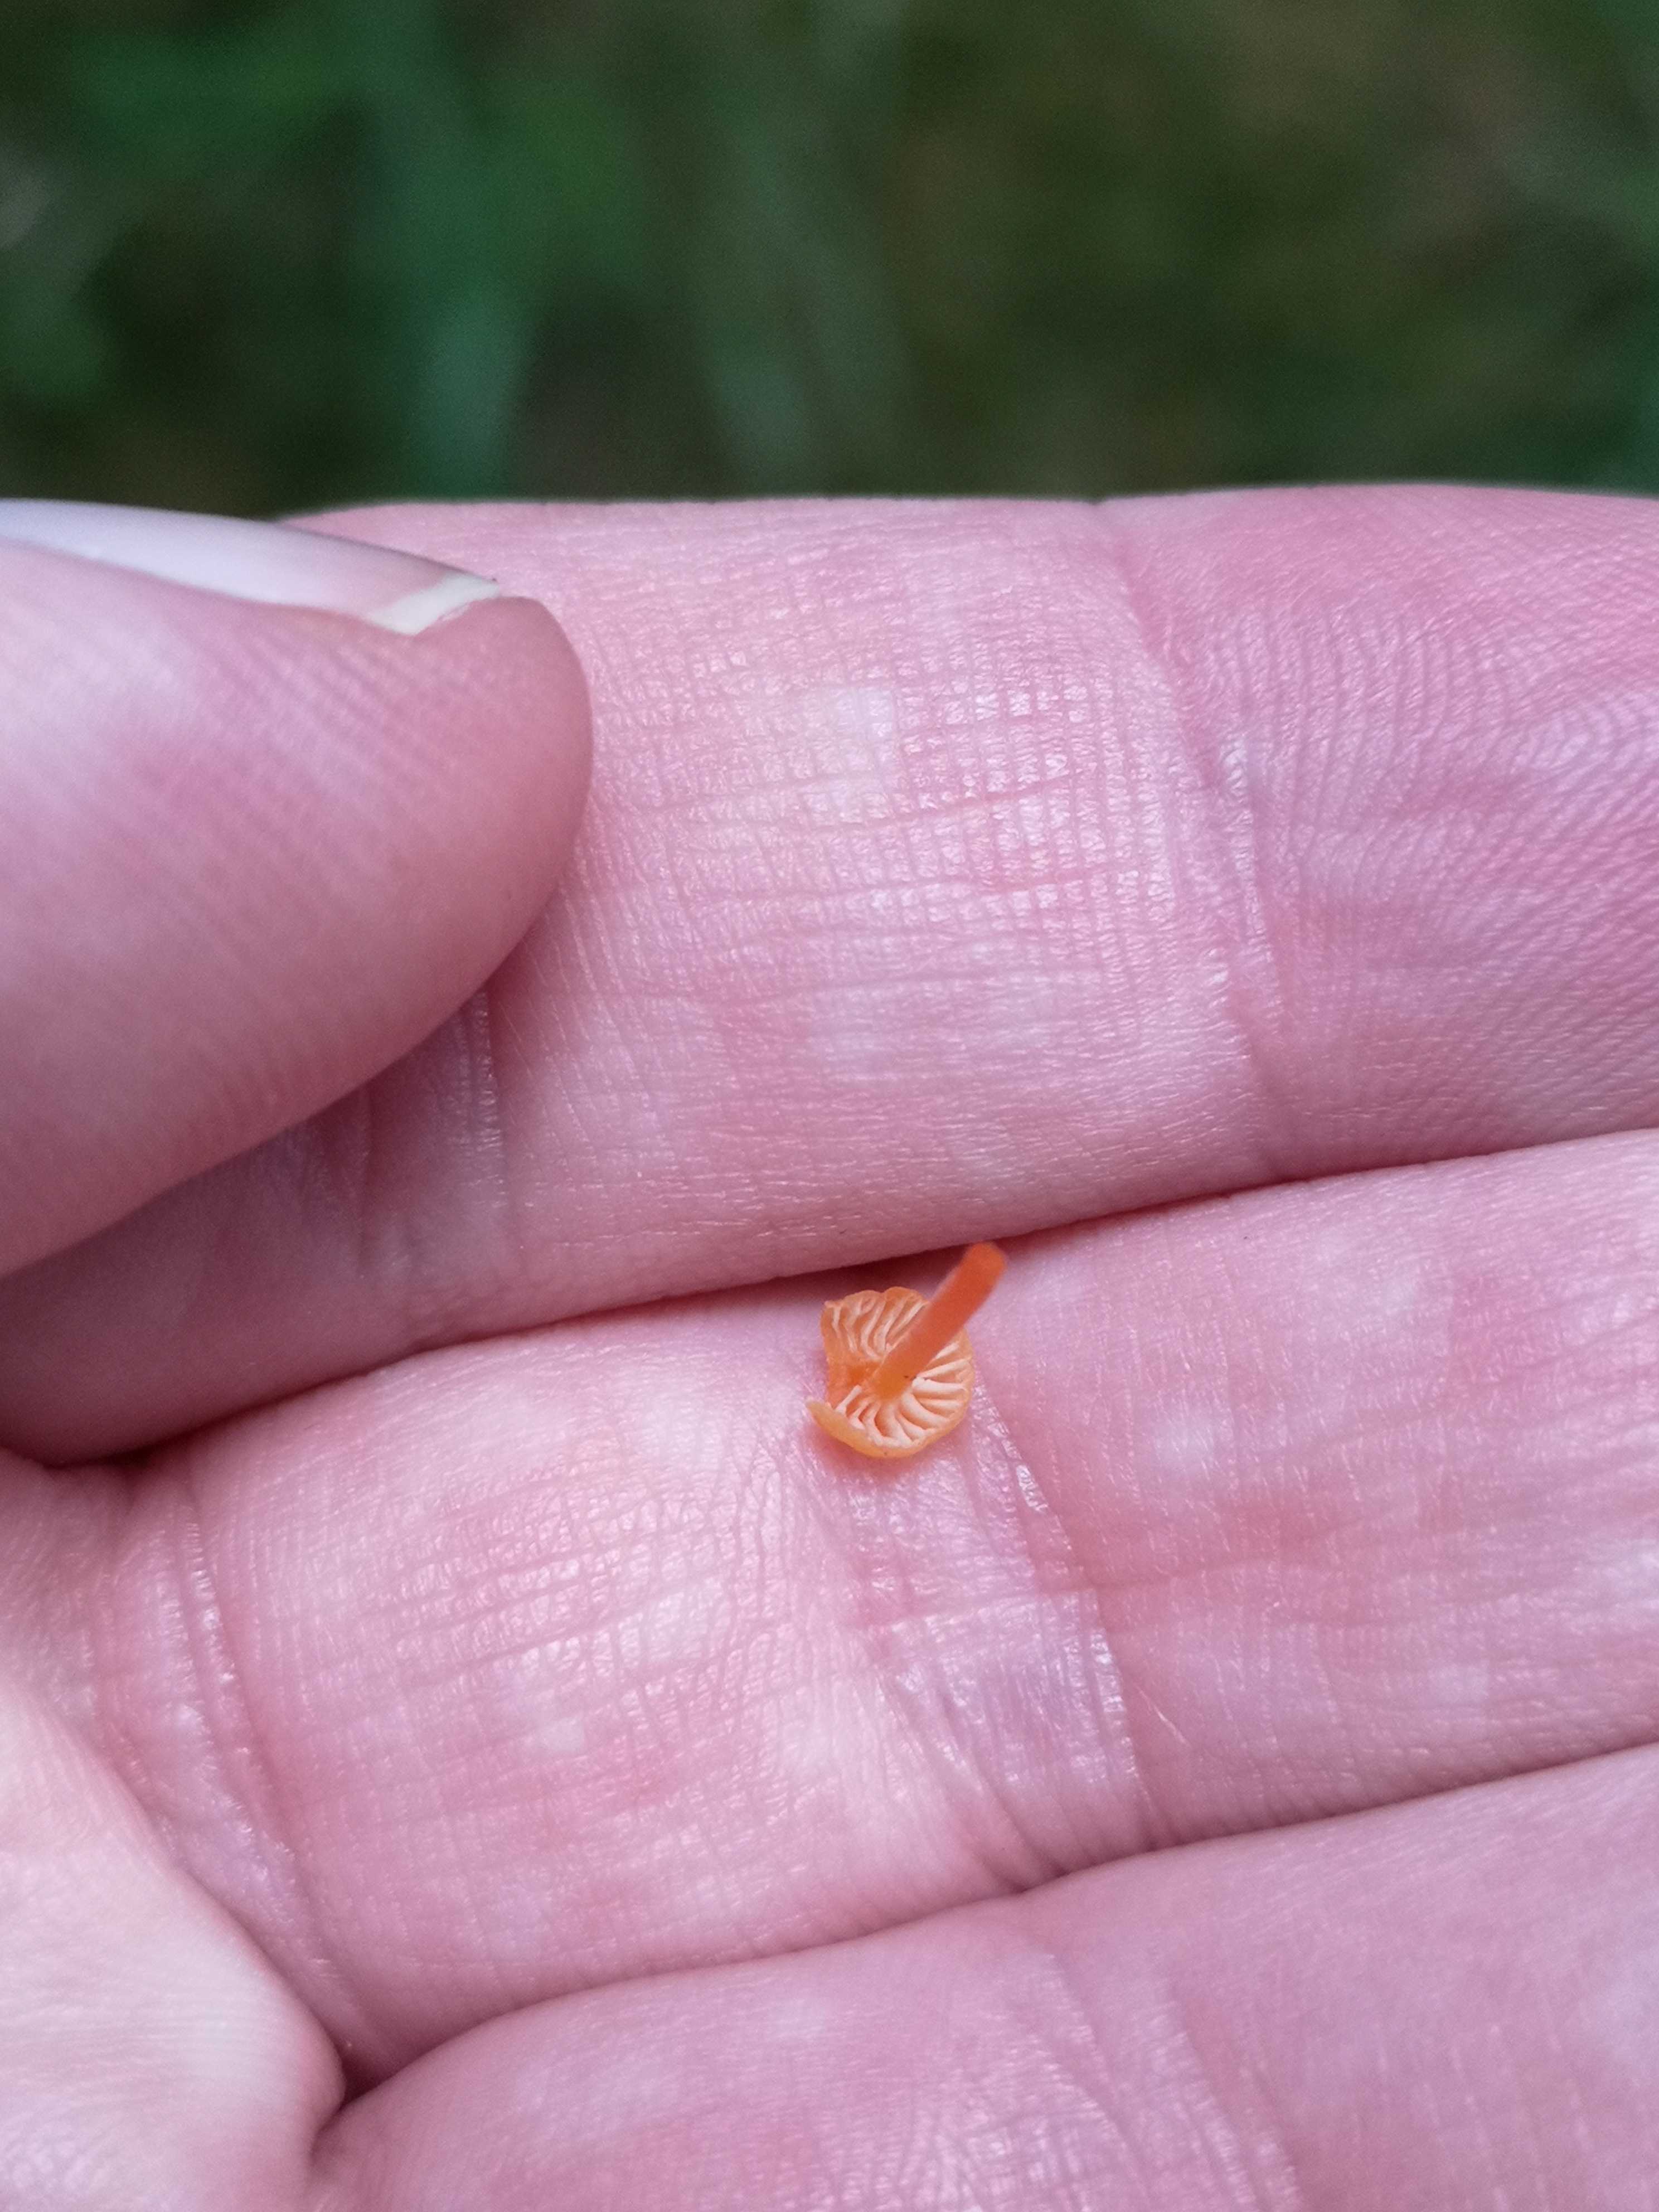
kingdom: Fungi
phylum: Basidiomycota
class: Agaricomycetes
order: Hymenochaetales
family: Rickenellaceae
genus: Rickenella
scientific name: Rickenella fibula
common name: orange mosnavlehat
